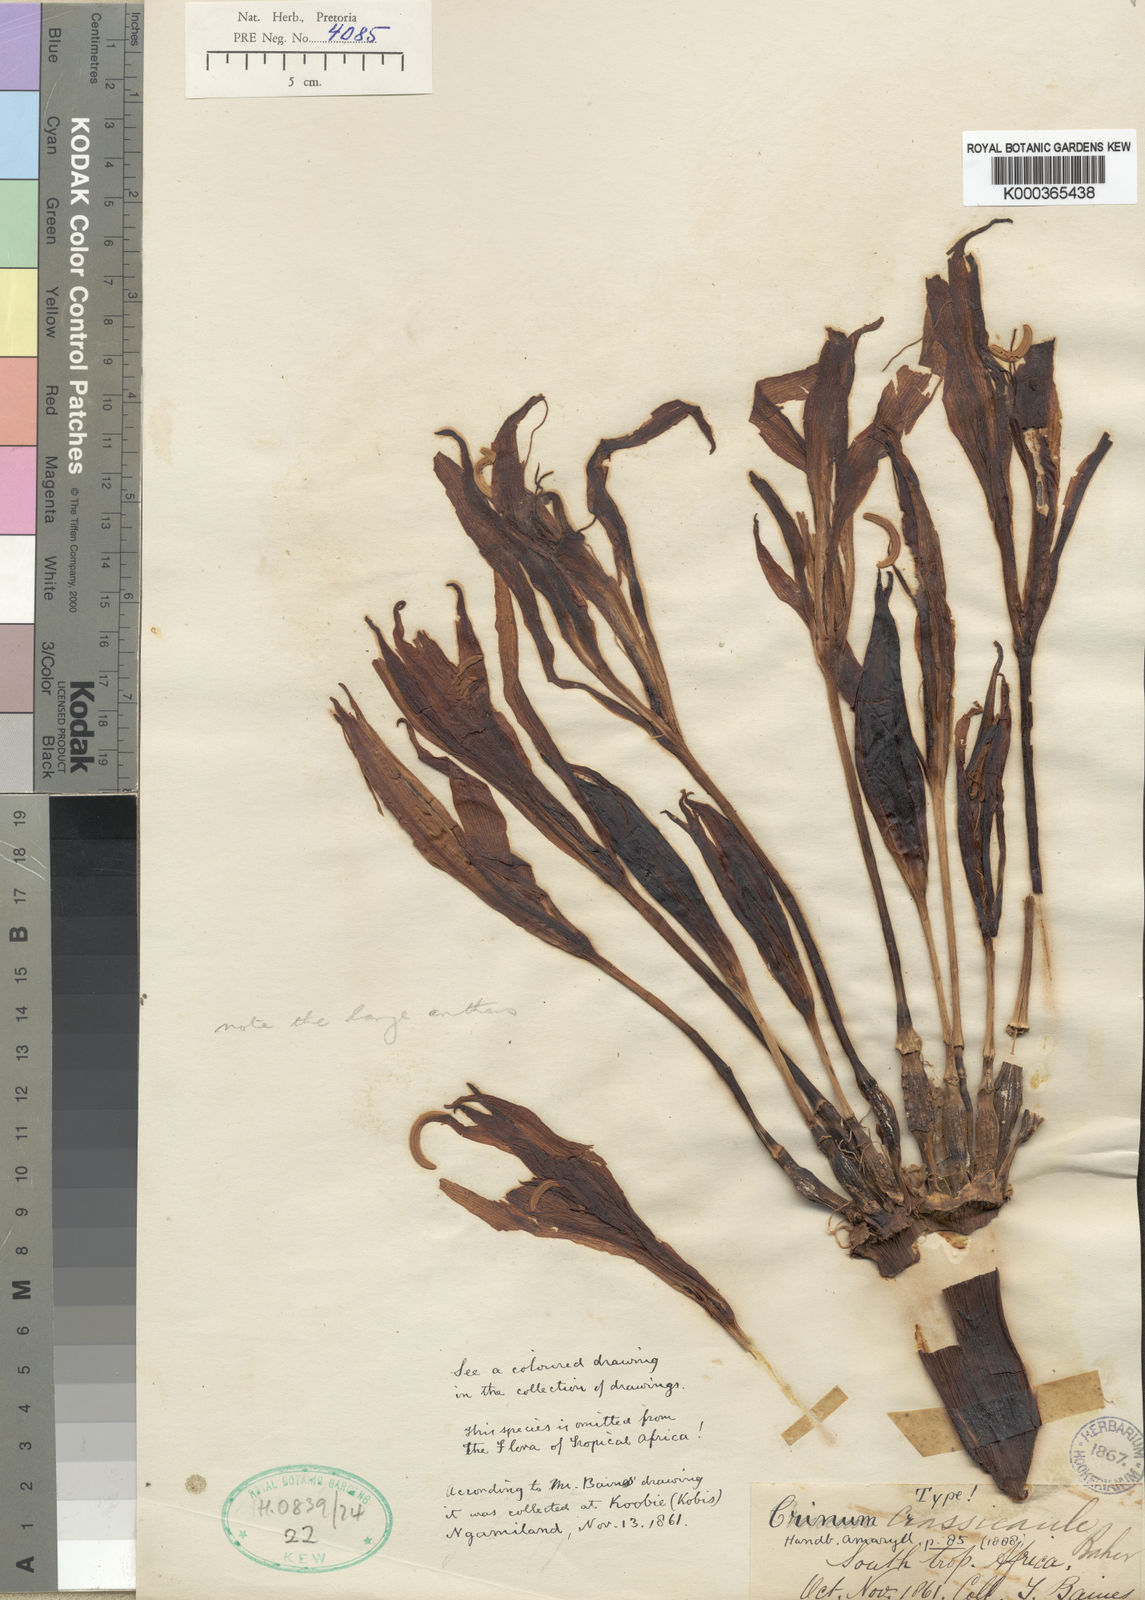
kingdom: Plantae
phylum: Tracheophyta
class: Liliopsida
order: Asparagales
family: Amaryllidaceae
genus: Crinum
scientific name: Crinum crassicaule
